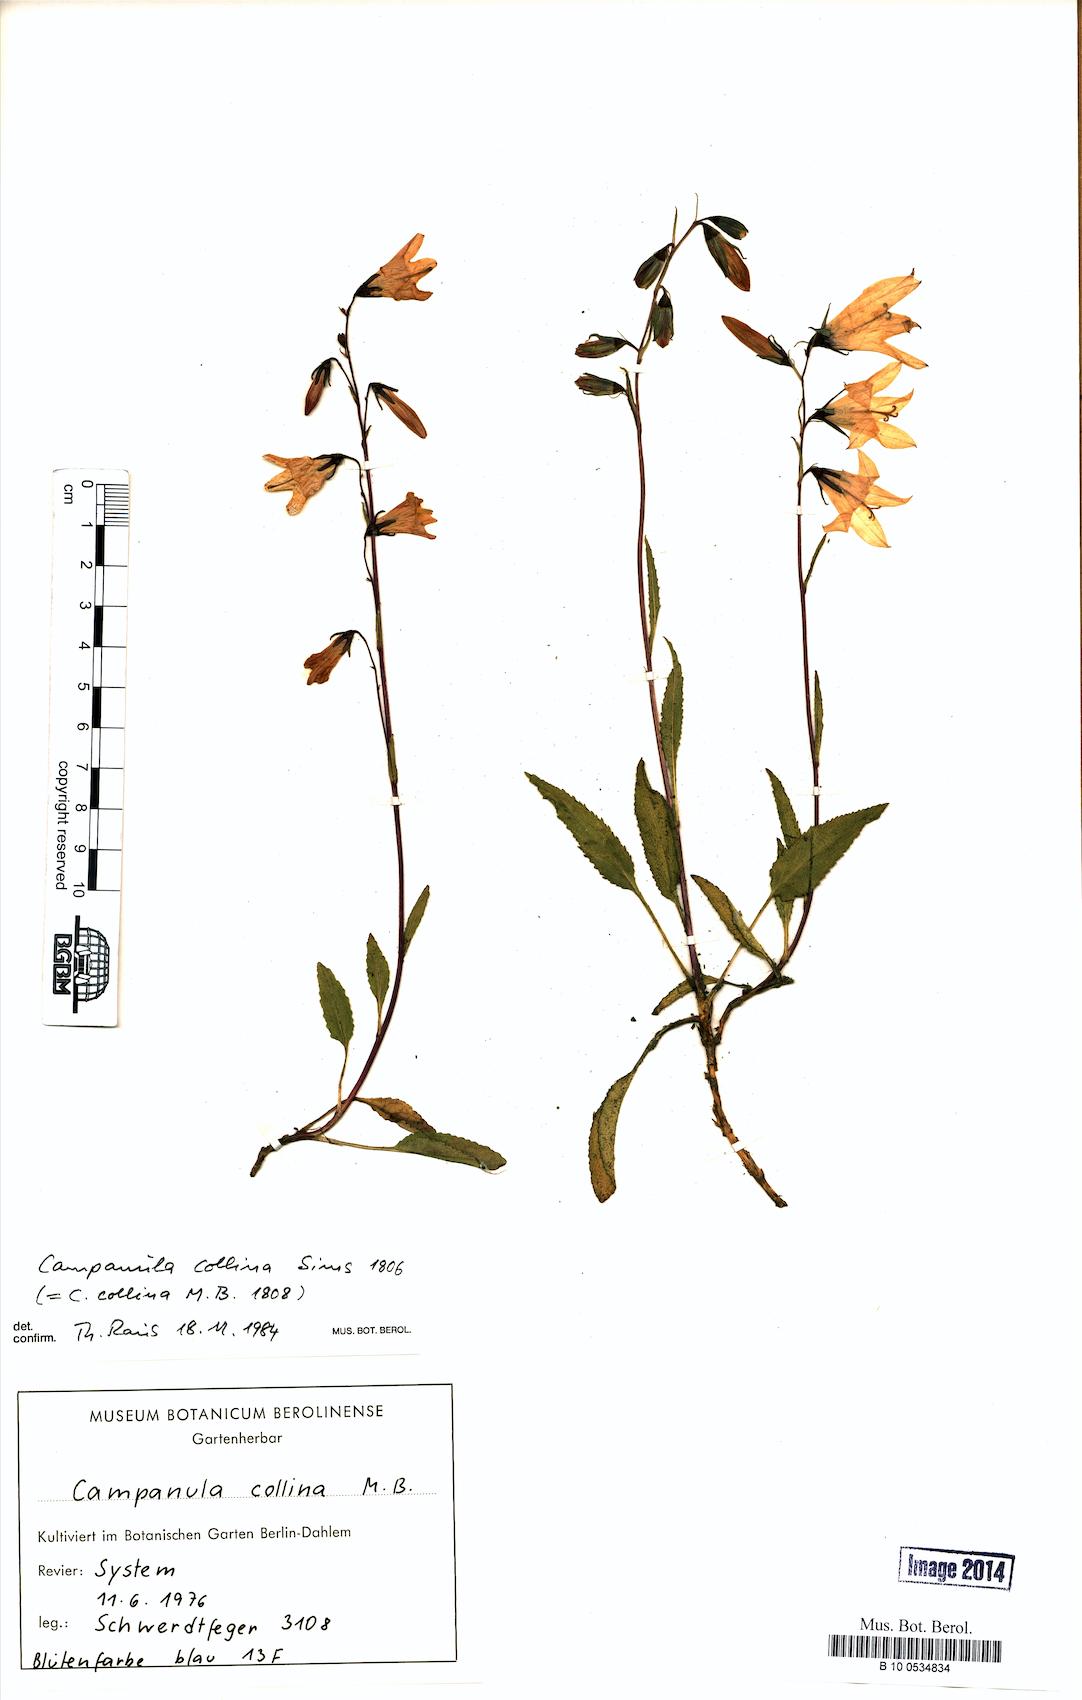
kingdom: Plantae
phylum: Tracheophyta
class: Magnoliopsida
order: Asterales
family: Campanulaceae
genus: Campanula
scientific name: Campanula collina
